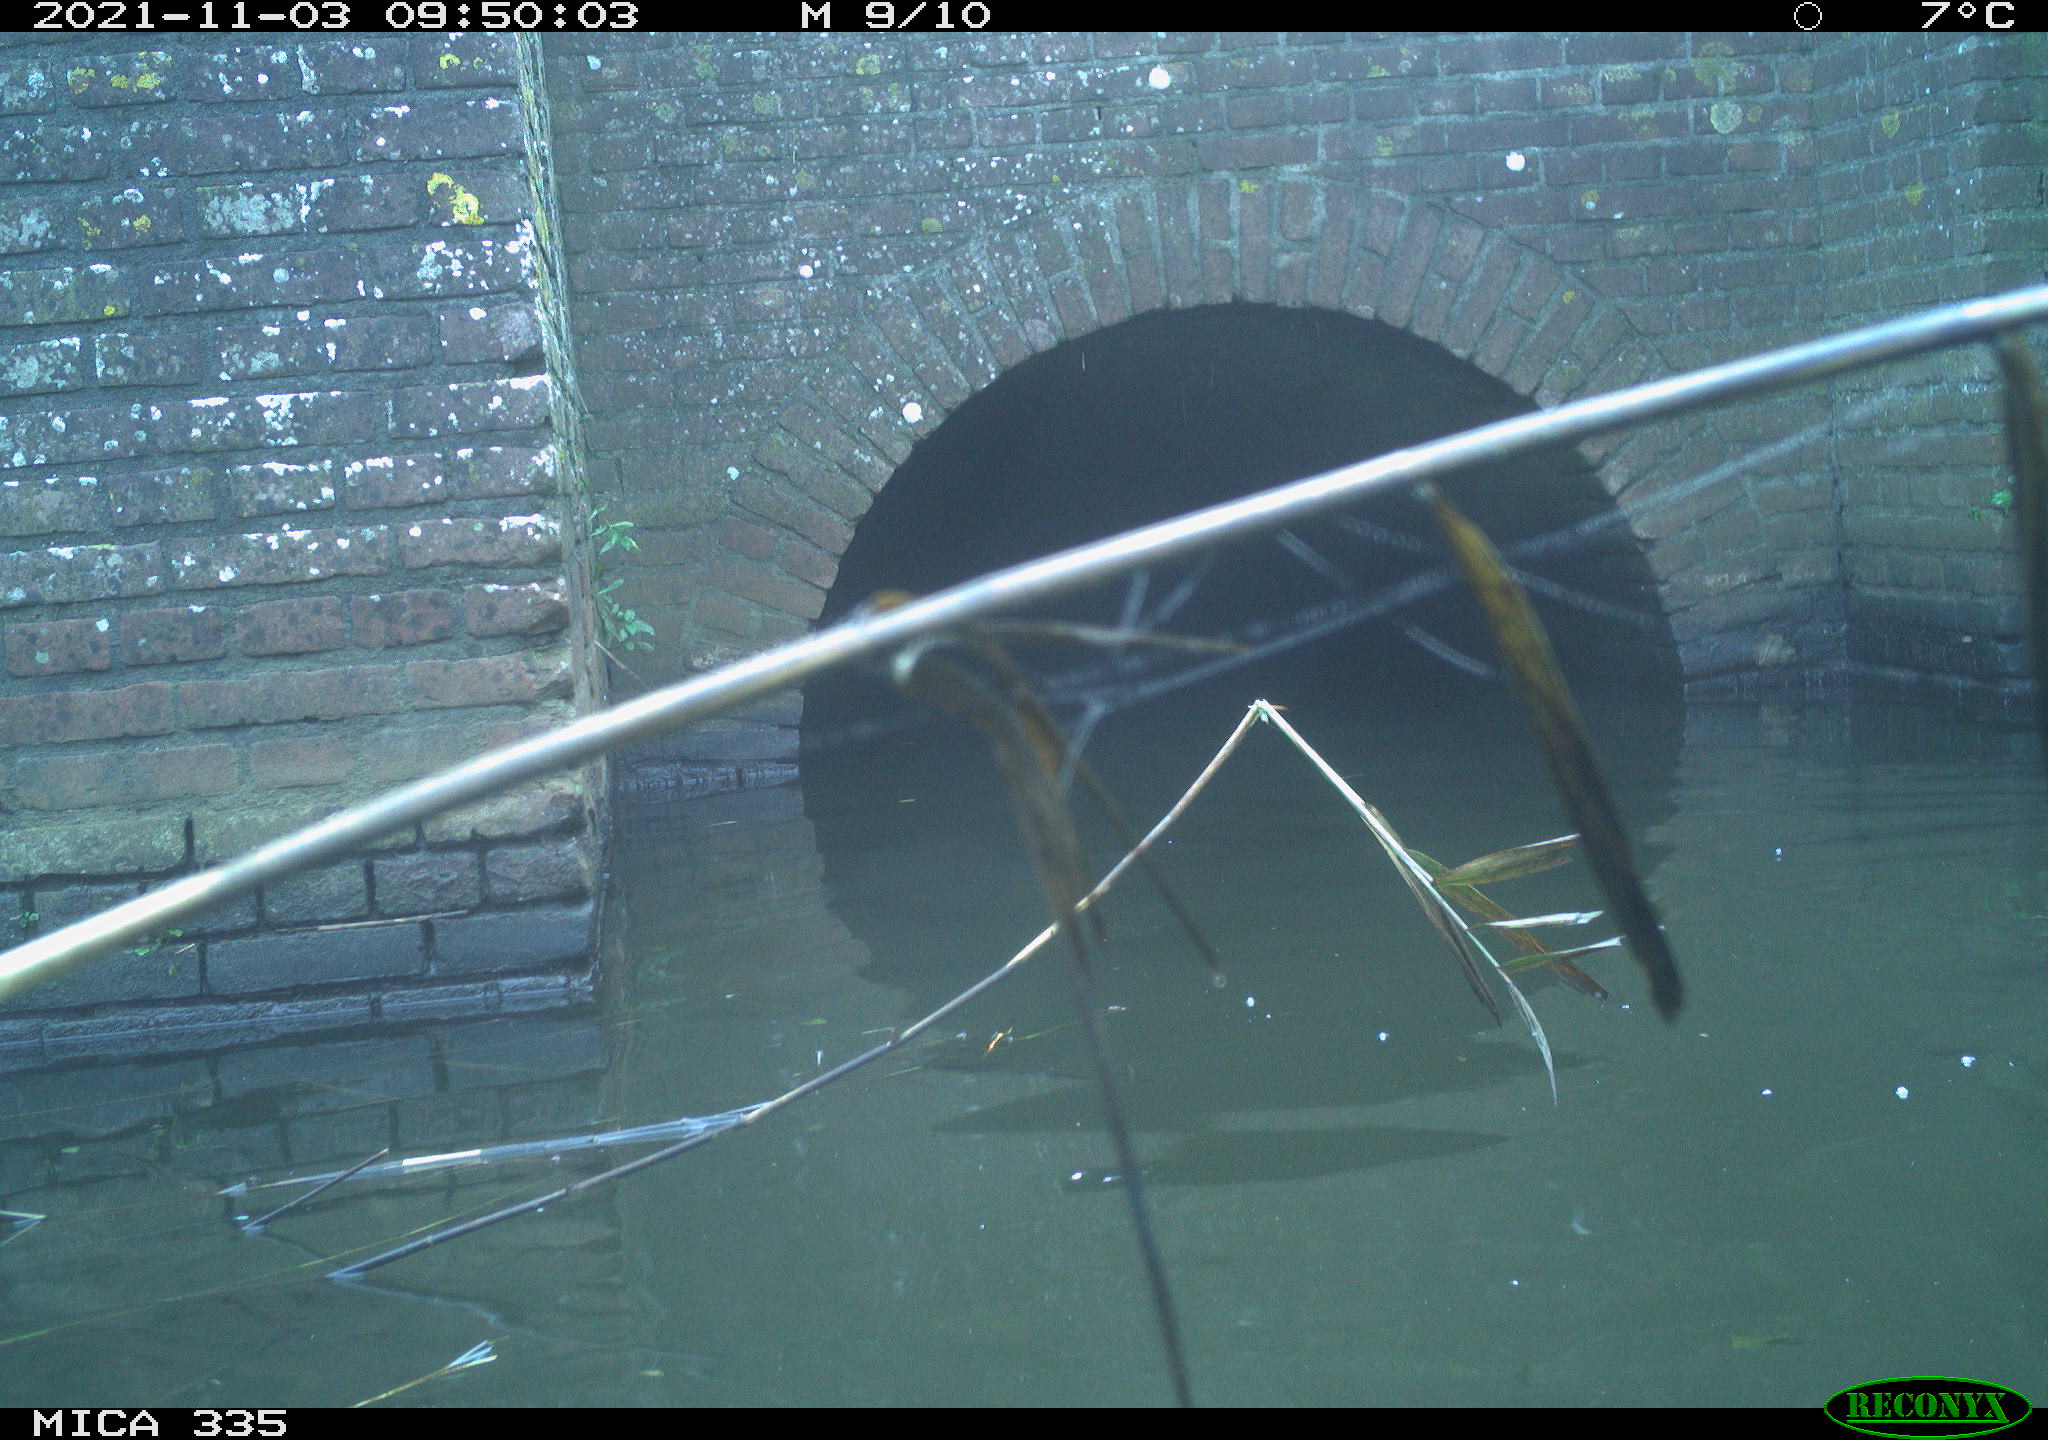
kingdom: Animalia
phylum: Chordata
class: Aves
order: Anseriformes
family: Anatidae
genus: Anas
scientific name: Anas platyrhynchos
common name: Mallard
